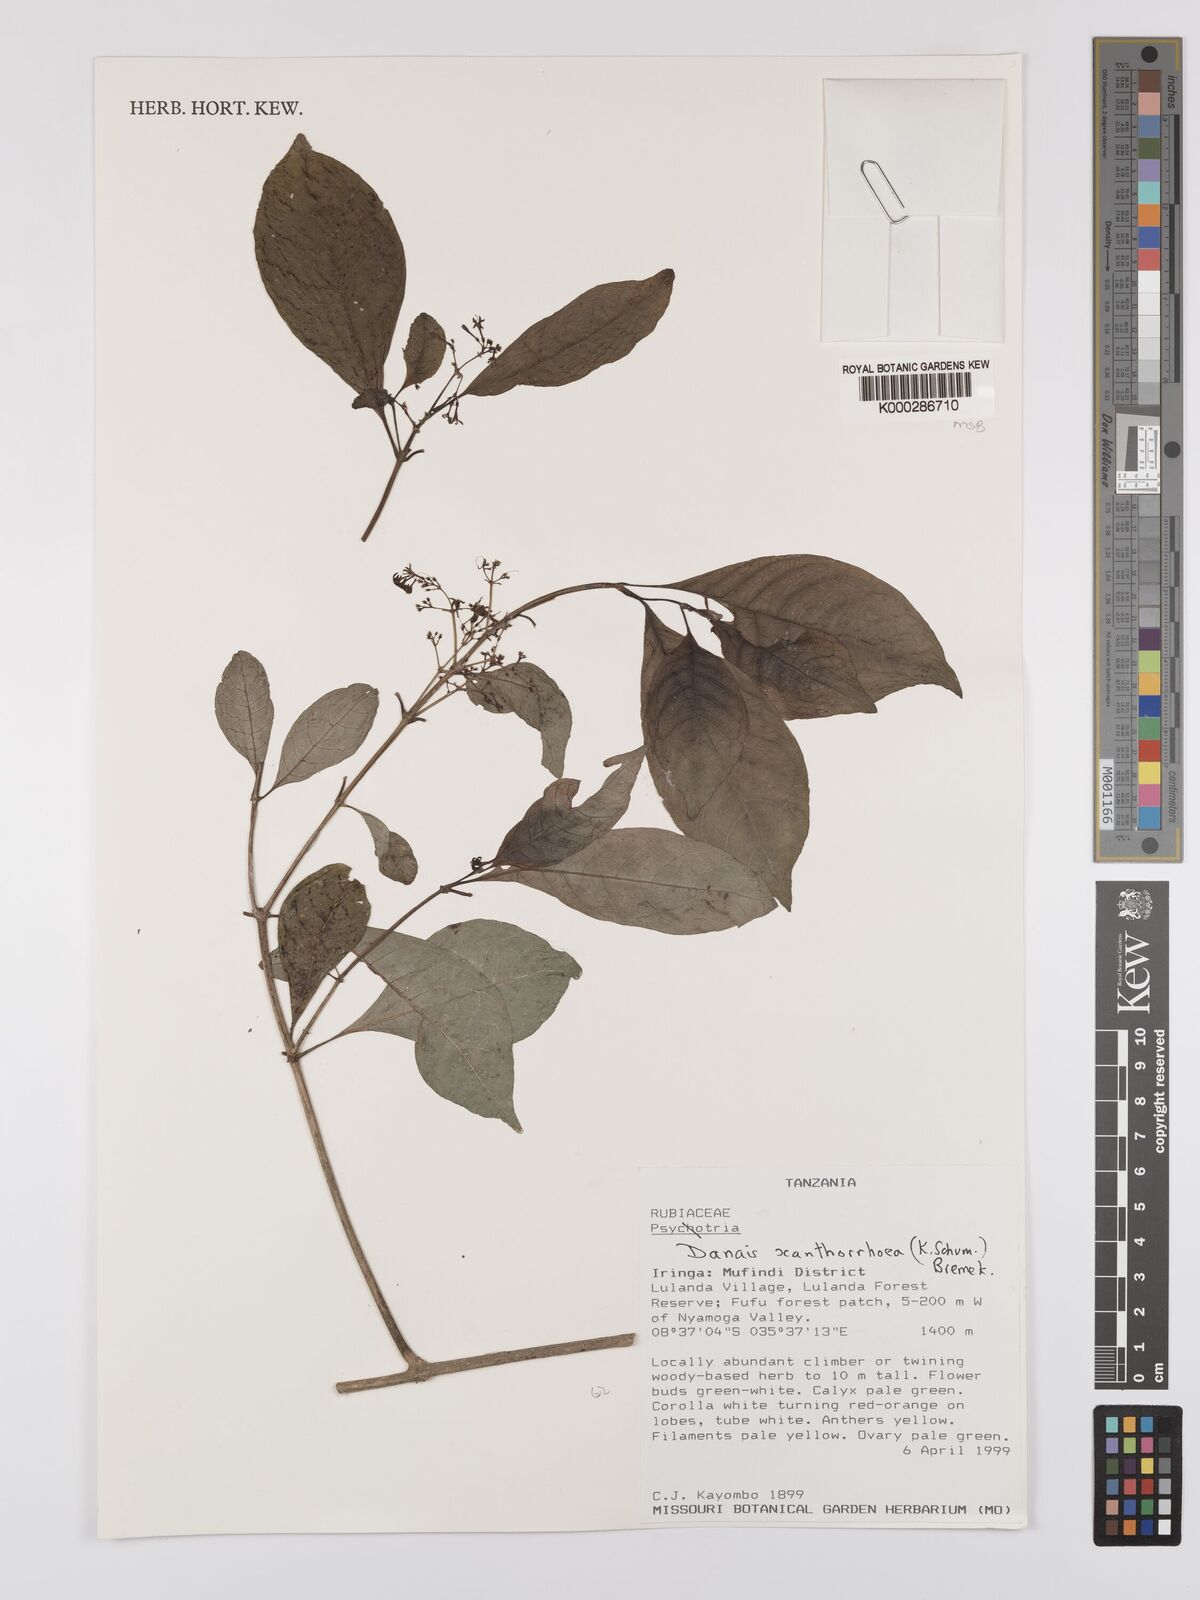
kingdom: Plantae
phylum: Tracheophyta
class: Magnoliopsida
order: Gentianales
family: Rubiaceae
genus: Danais
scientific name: Danais xanthorrhoea
